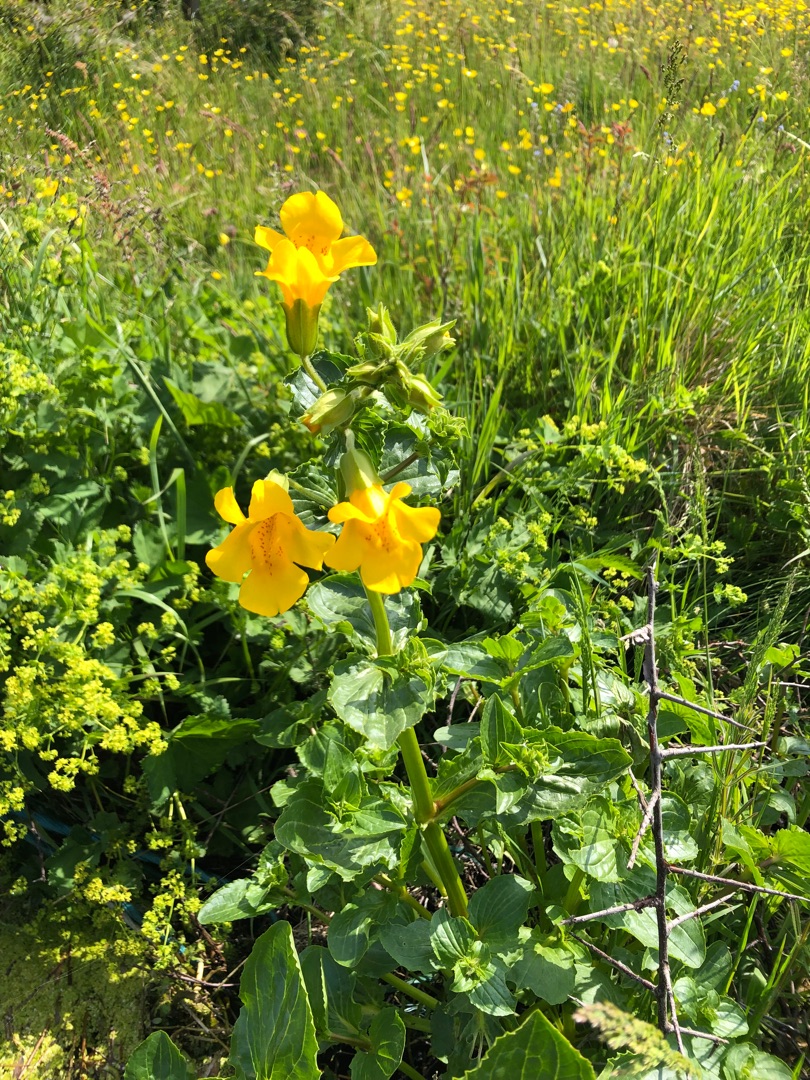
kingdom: Plantae
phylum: Tracheophyta
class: Magnoliopsida
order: Lamiales
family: Phrymaceae
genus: Erythranthe
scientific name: Erythranthe guttata
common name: Abeblomst
